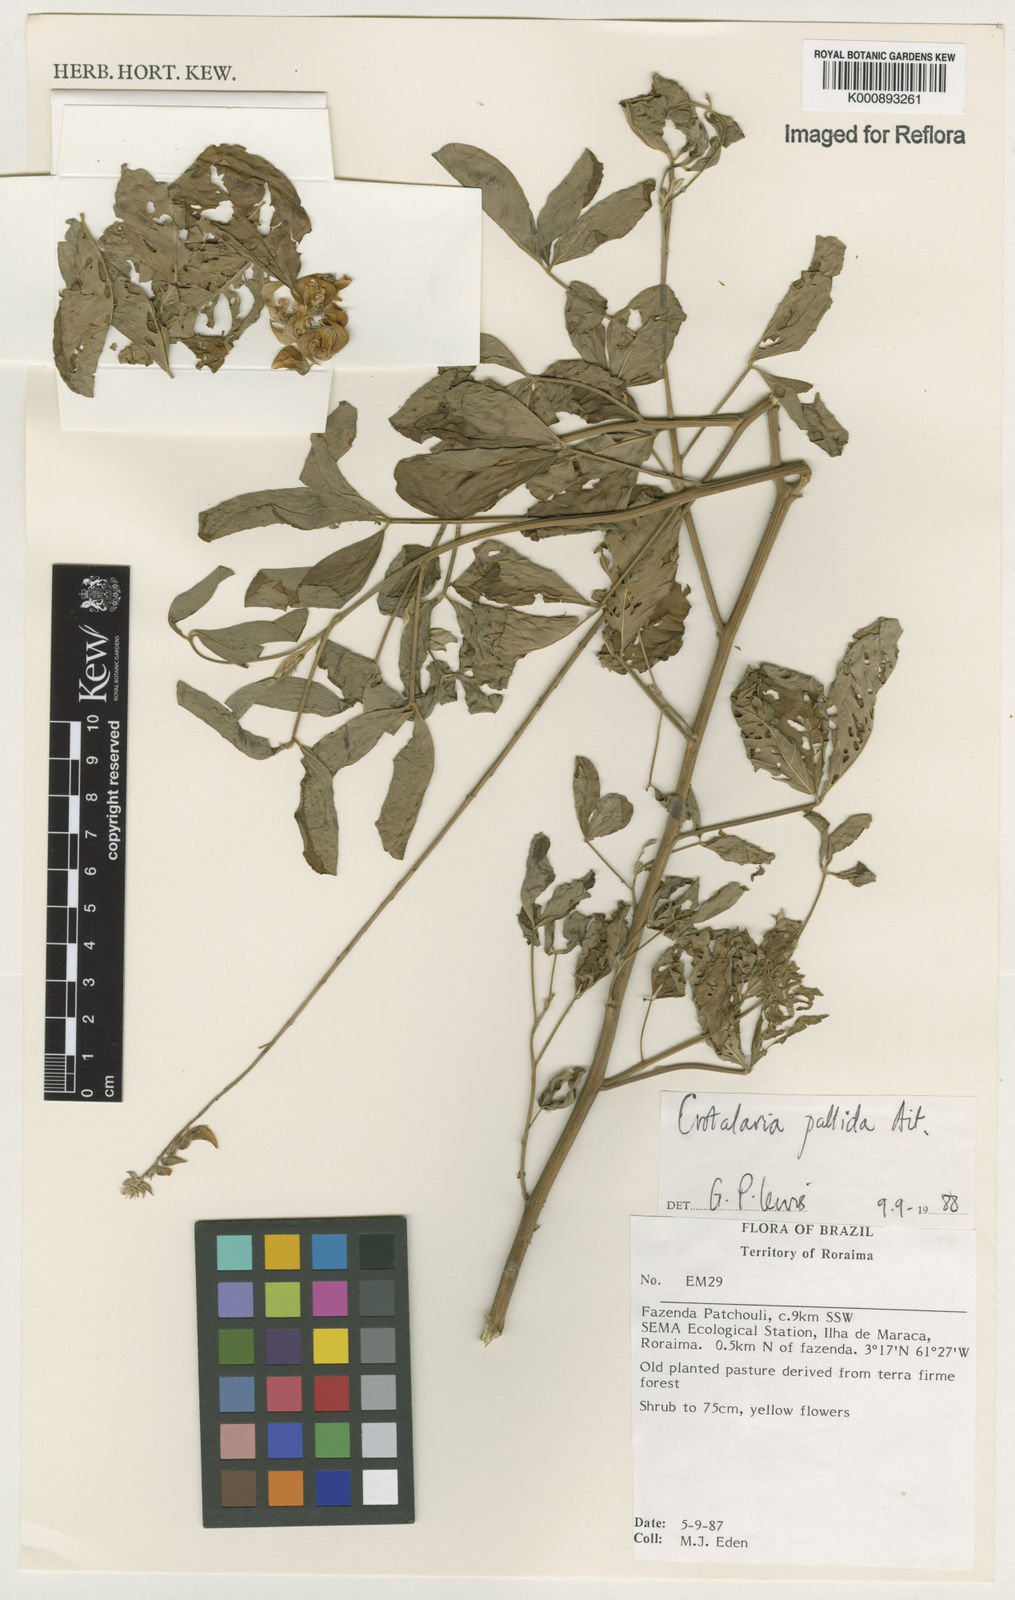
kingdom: Plantae
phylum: Tracheophyta
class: Magnoliopsida
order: Fabales
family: Fabaceae
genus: Crotalaria
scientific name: Crotalaria pallida
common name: Smooth rattlebox
